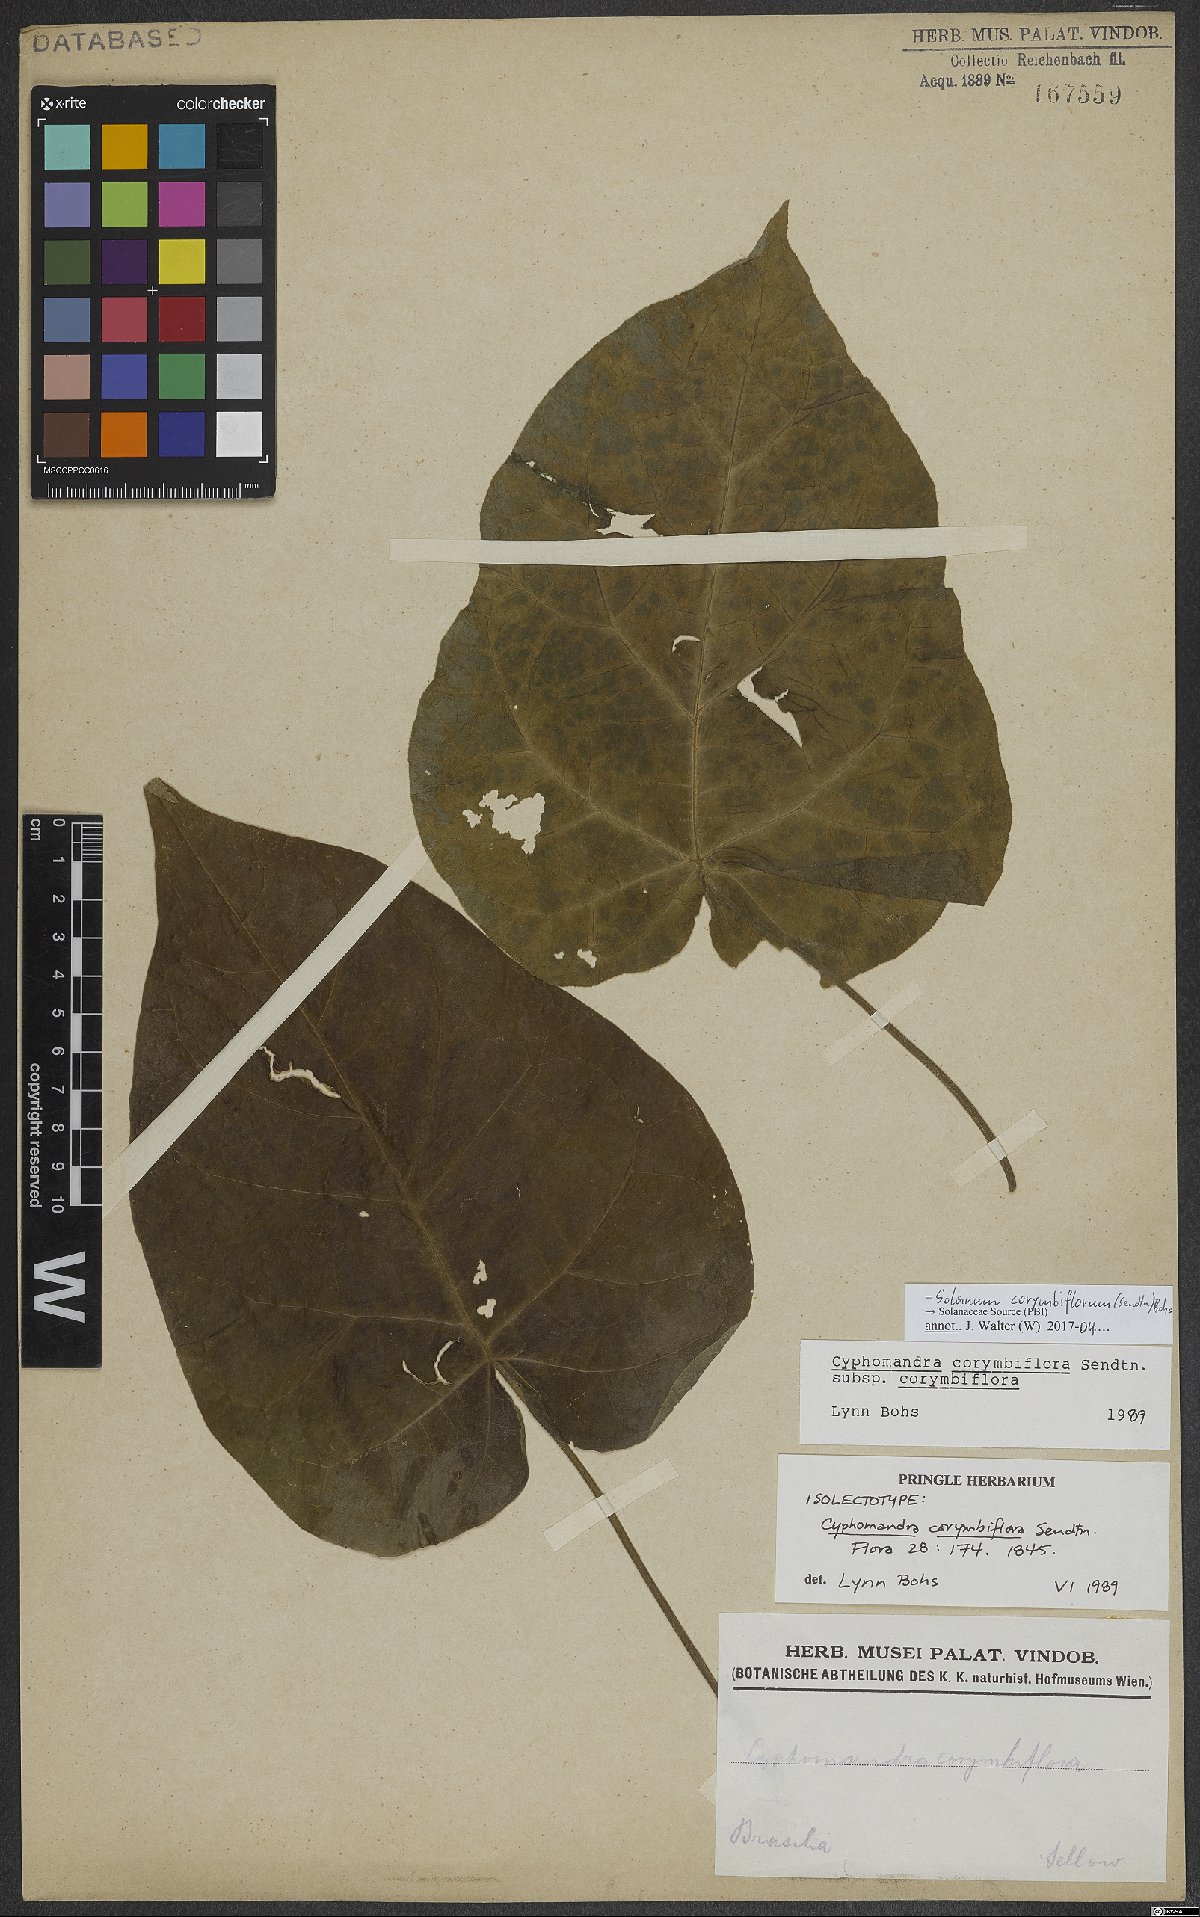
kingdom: Plantae
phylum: Tracheophyta
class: Magnoliopsida
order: Solanales
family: Solanaceae
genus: Solanum
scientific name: Solanum corymbiflorum
